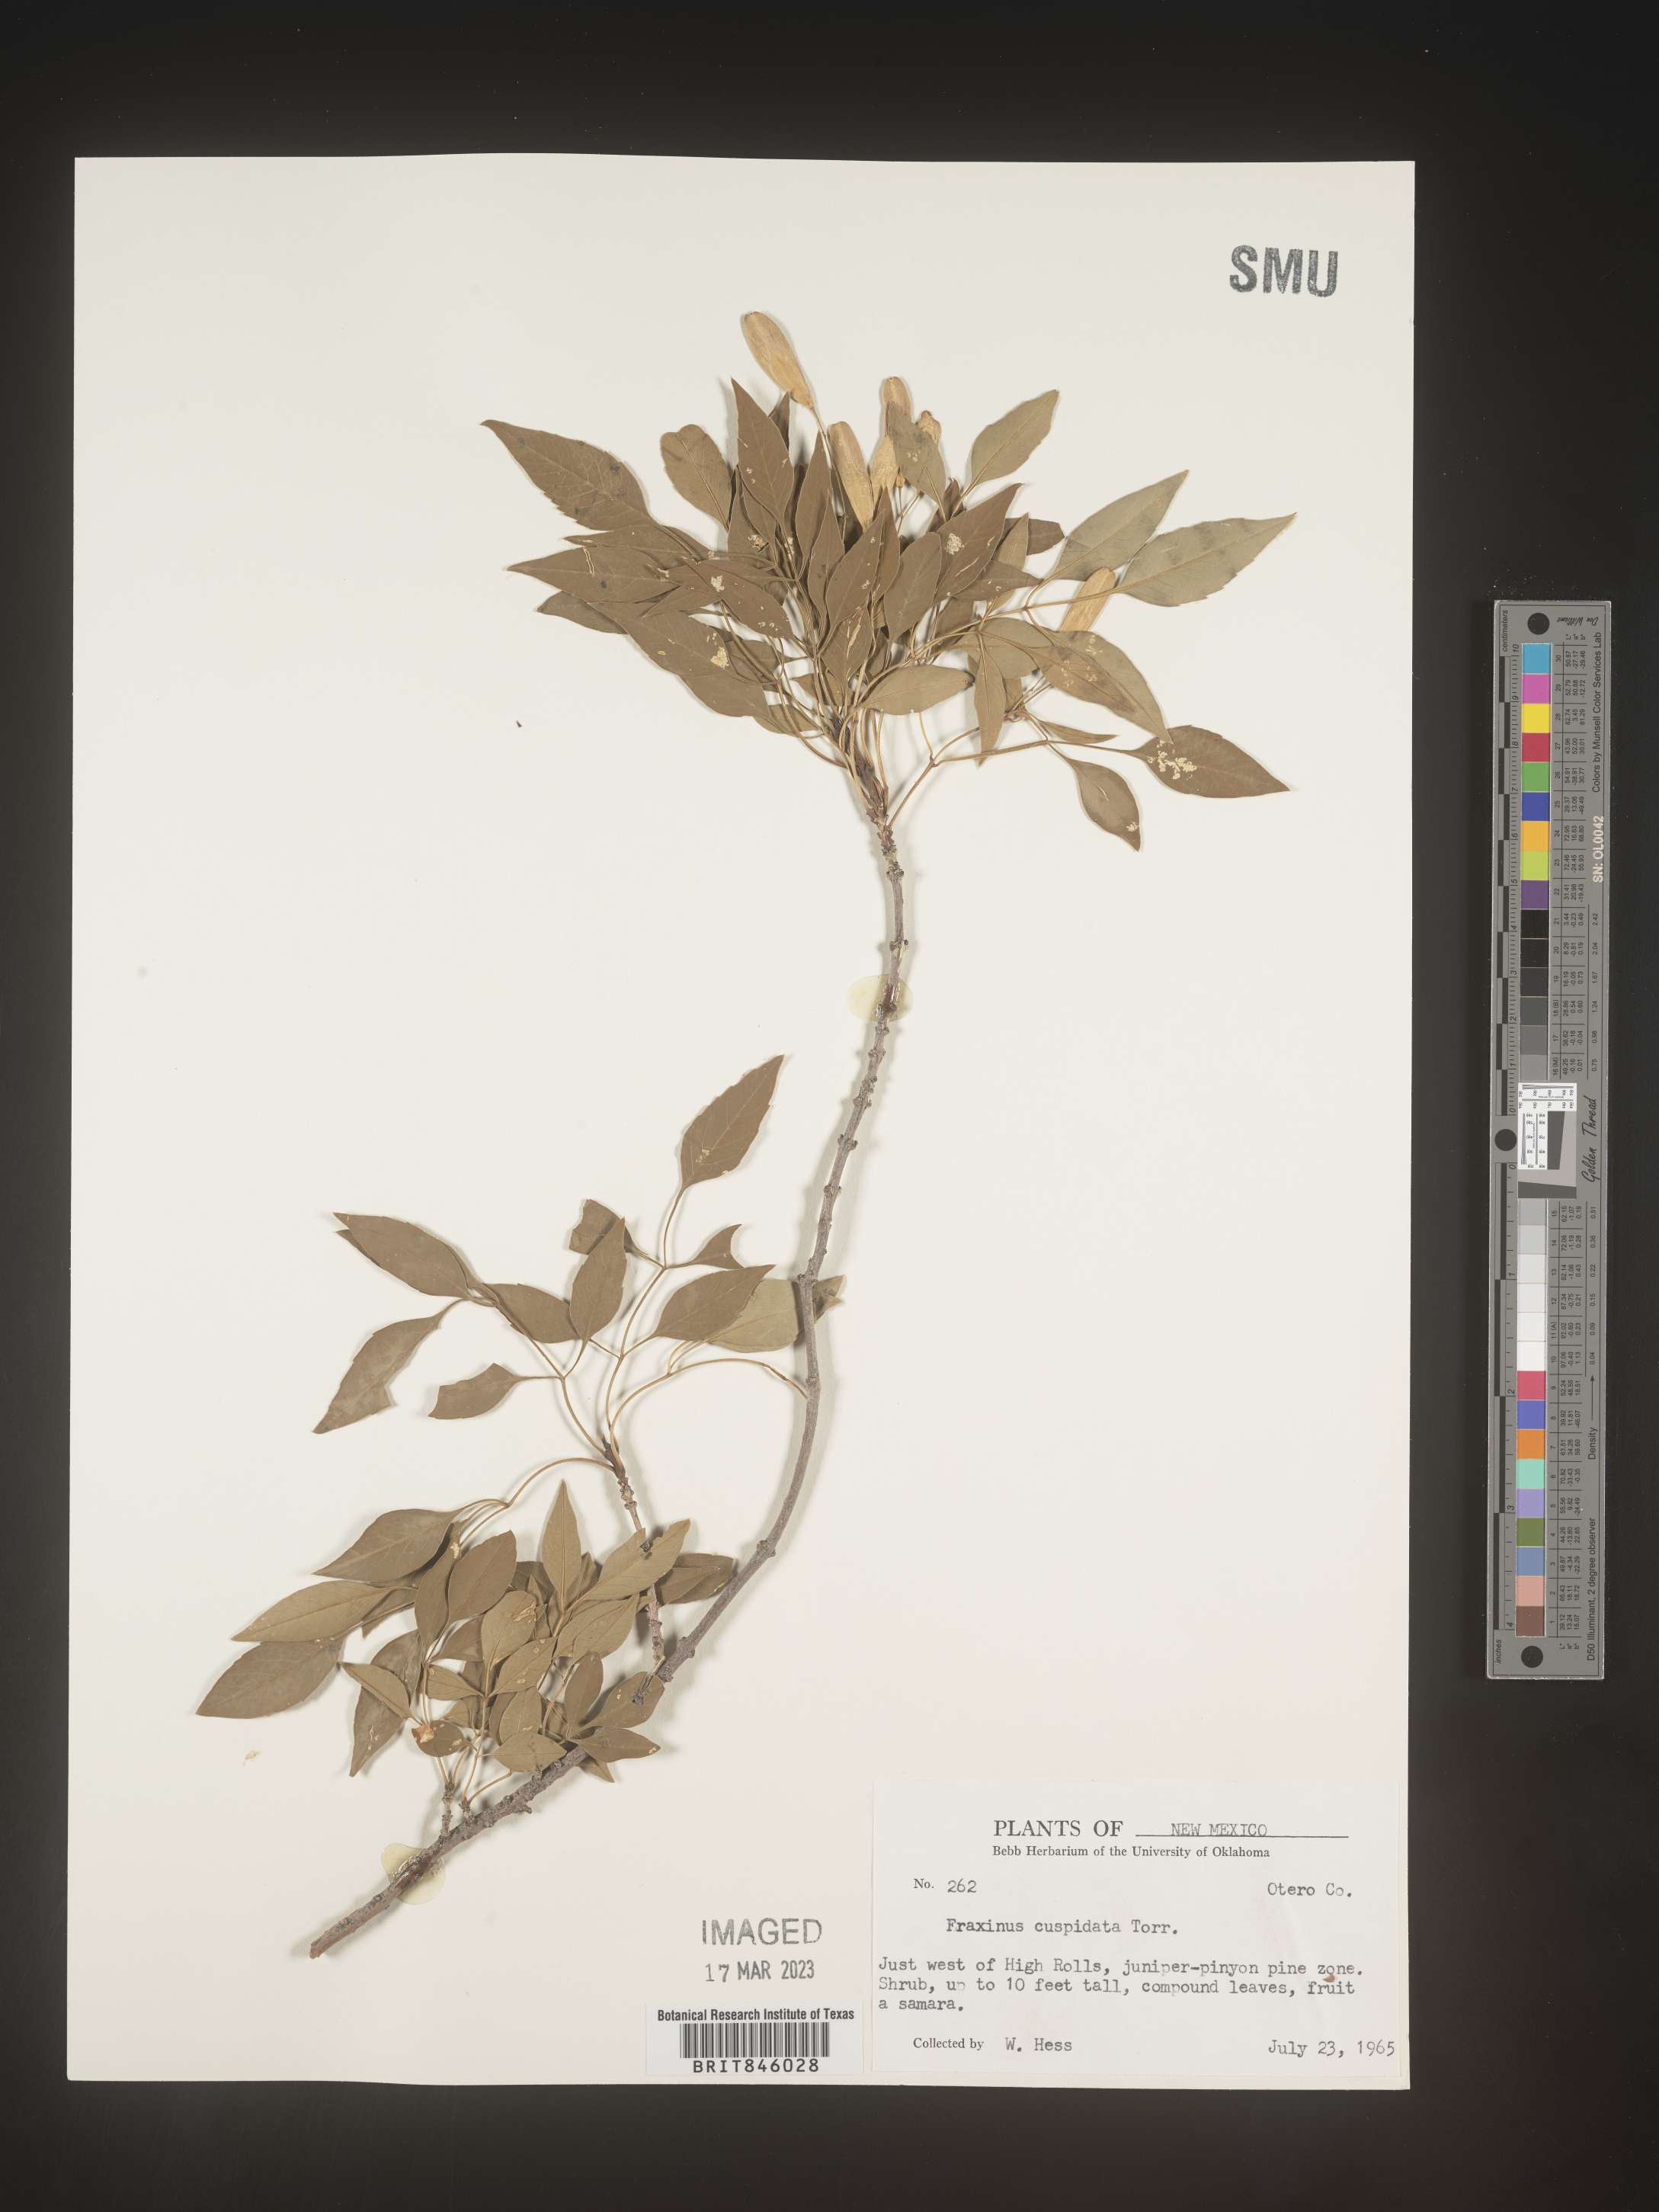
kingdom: Plantae
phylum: Tracheophyta
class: Magnoliopsida
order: Lamiales
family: Oleaceae
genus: Fraxinus
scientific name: Fraxinus cuspidata
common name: Fragrant ash
